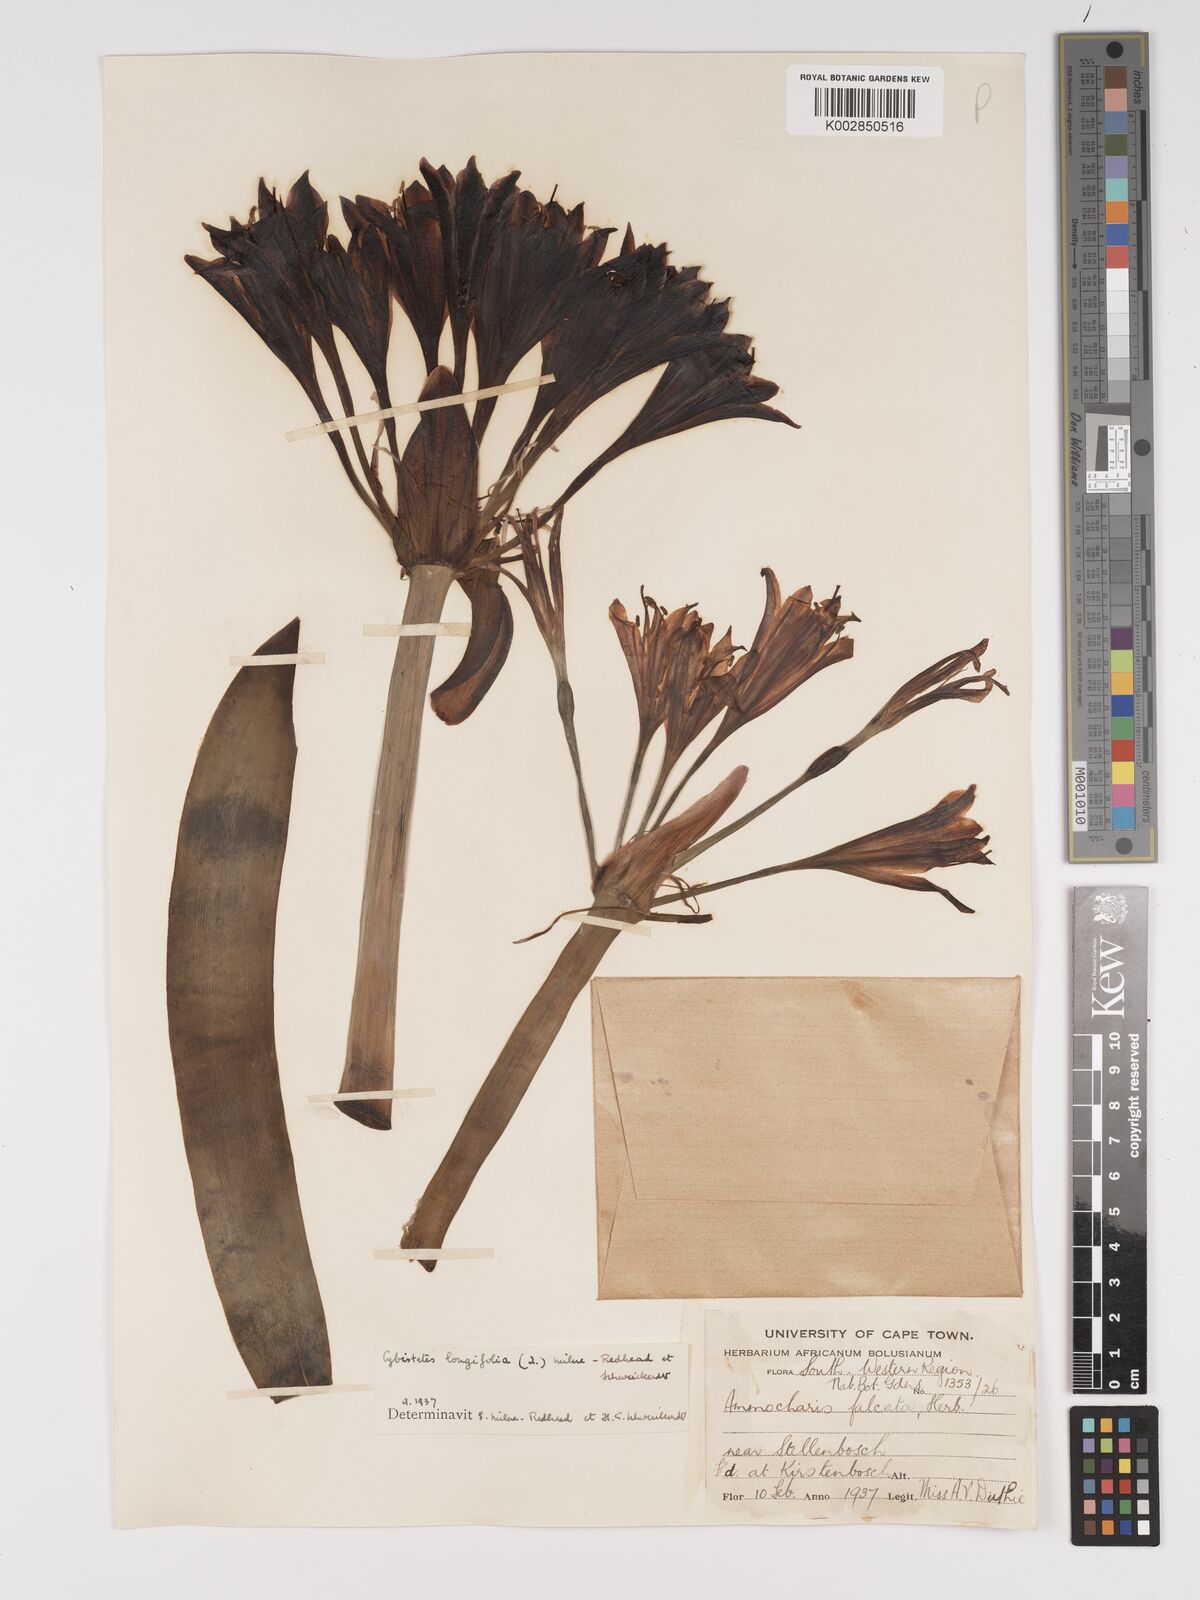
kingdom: Plantae
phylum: Tracheophyta
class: Liliopsida
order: Asparagales
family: Amaryllidaceae
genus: Ammocharis
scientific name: Ammocharis longifolia
